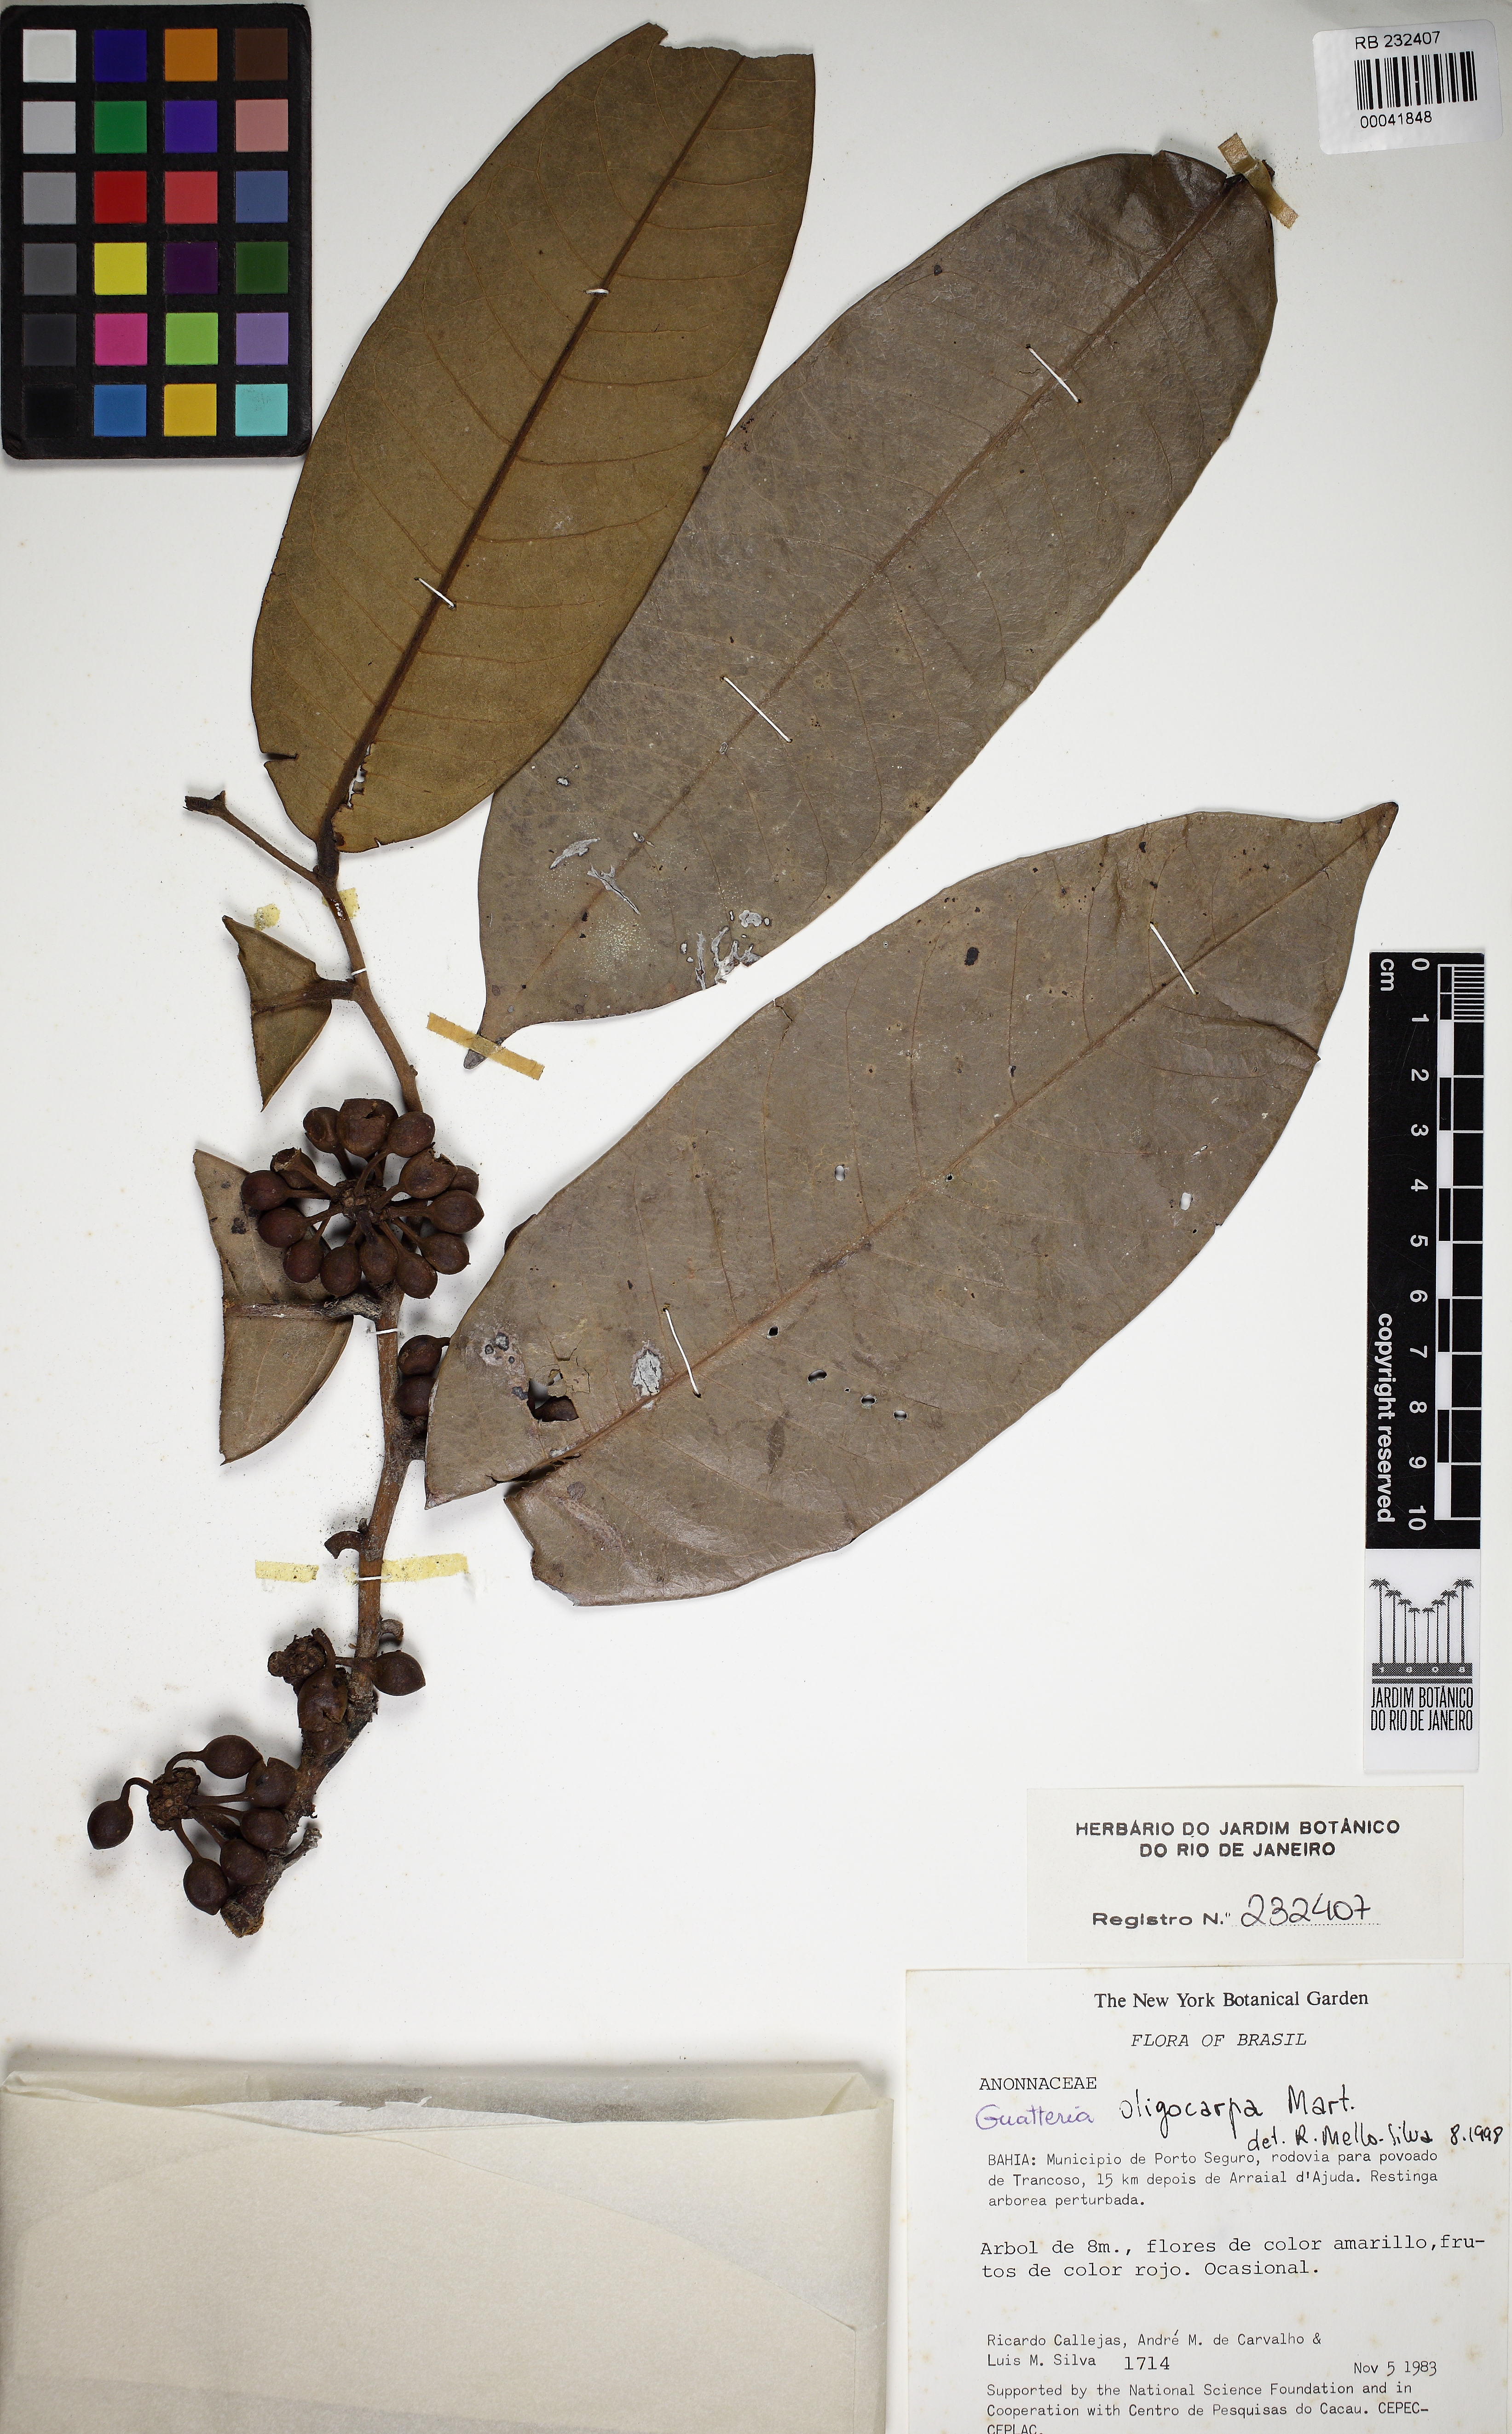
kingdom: Plantae
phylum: Tracheophyta
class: Magnoliopsida
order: Magnoliales
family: Annonaceae
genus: Guatteria
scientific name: Guatteria oligocarpa
